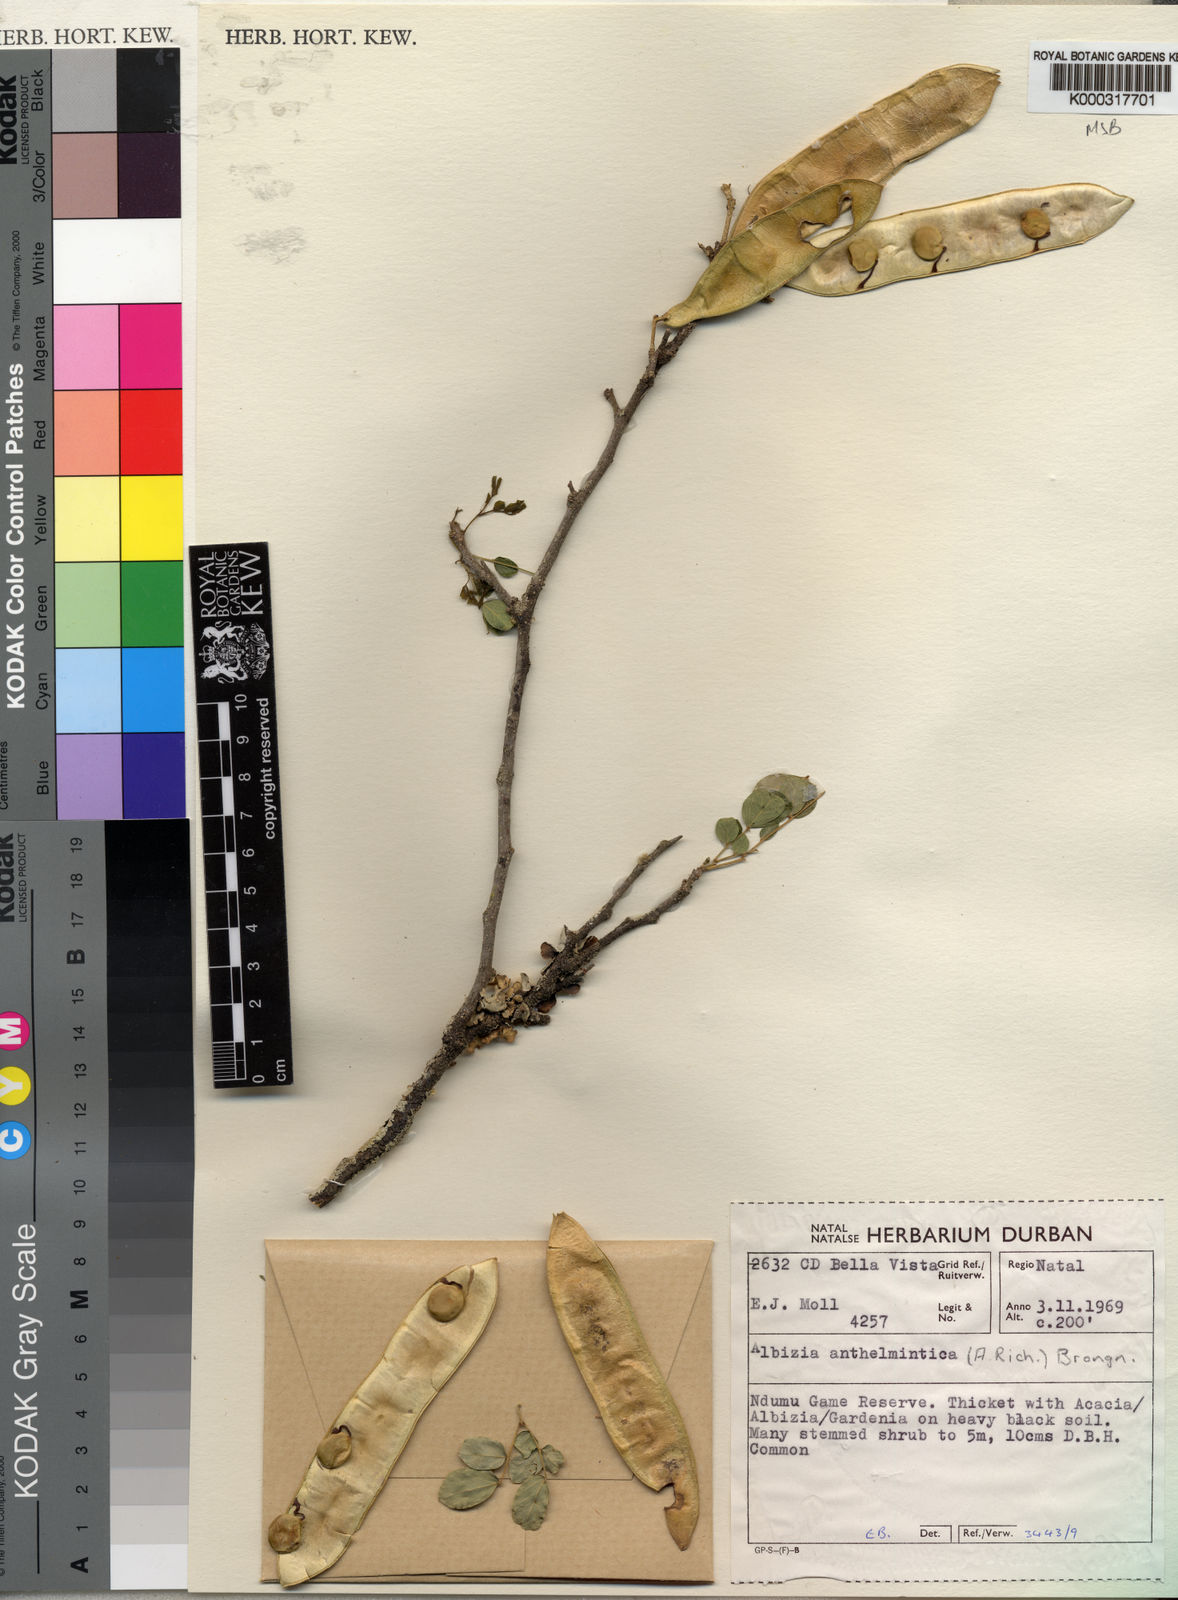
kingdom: Plantae
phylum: Tracheophyta
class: Magnoliopsida
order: Fabales
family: Fabaceae
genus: Albizia
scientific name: Albizia anthelmintica
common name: Worm-bark false-thorn
